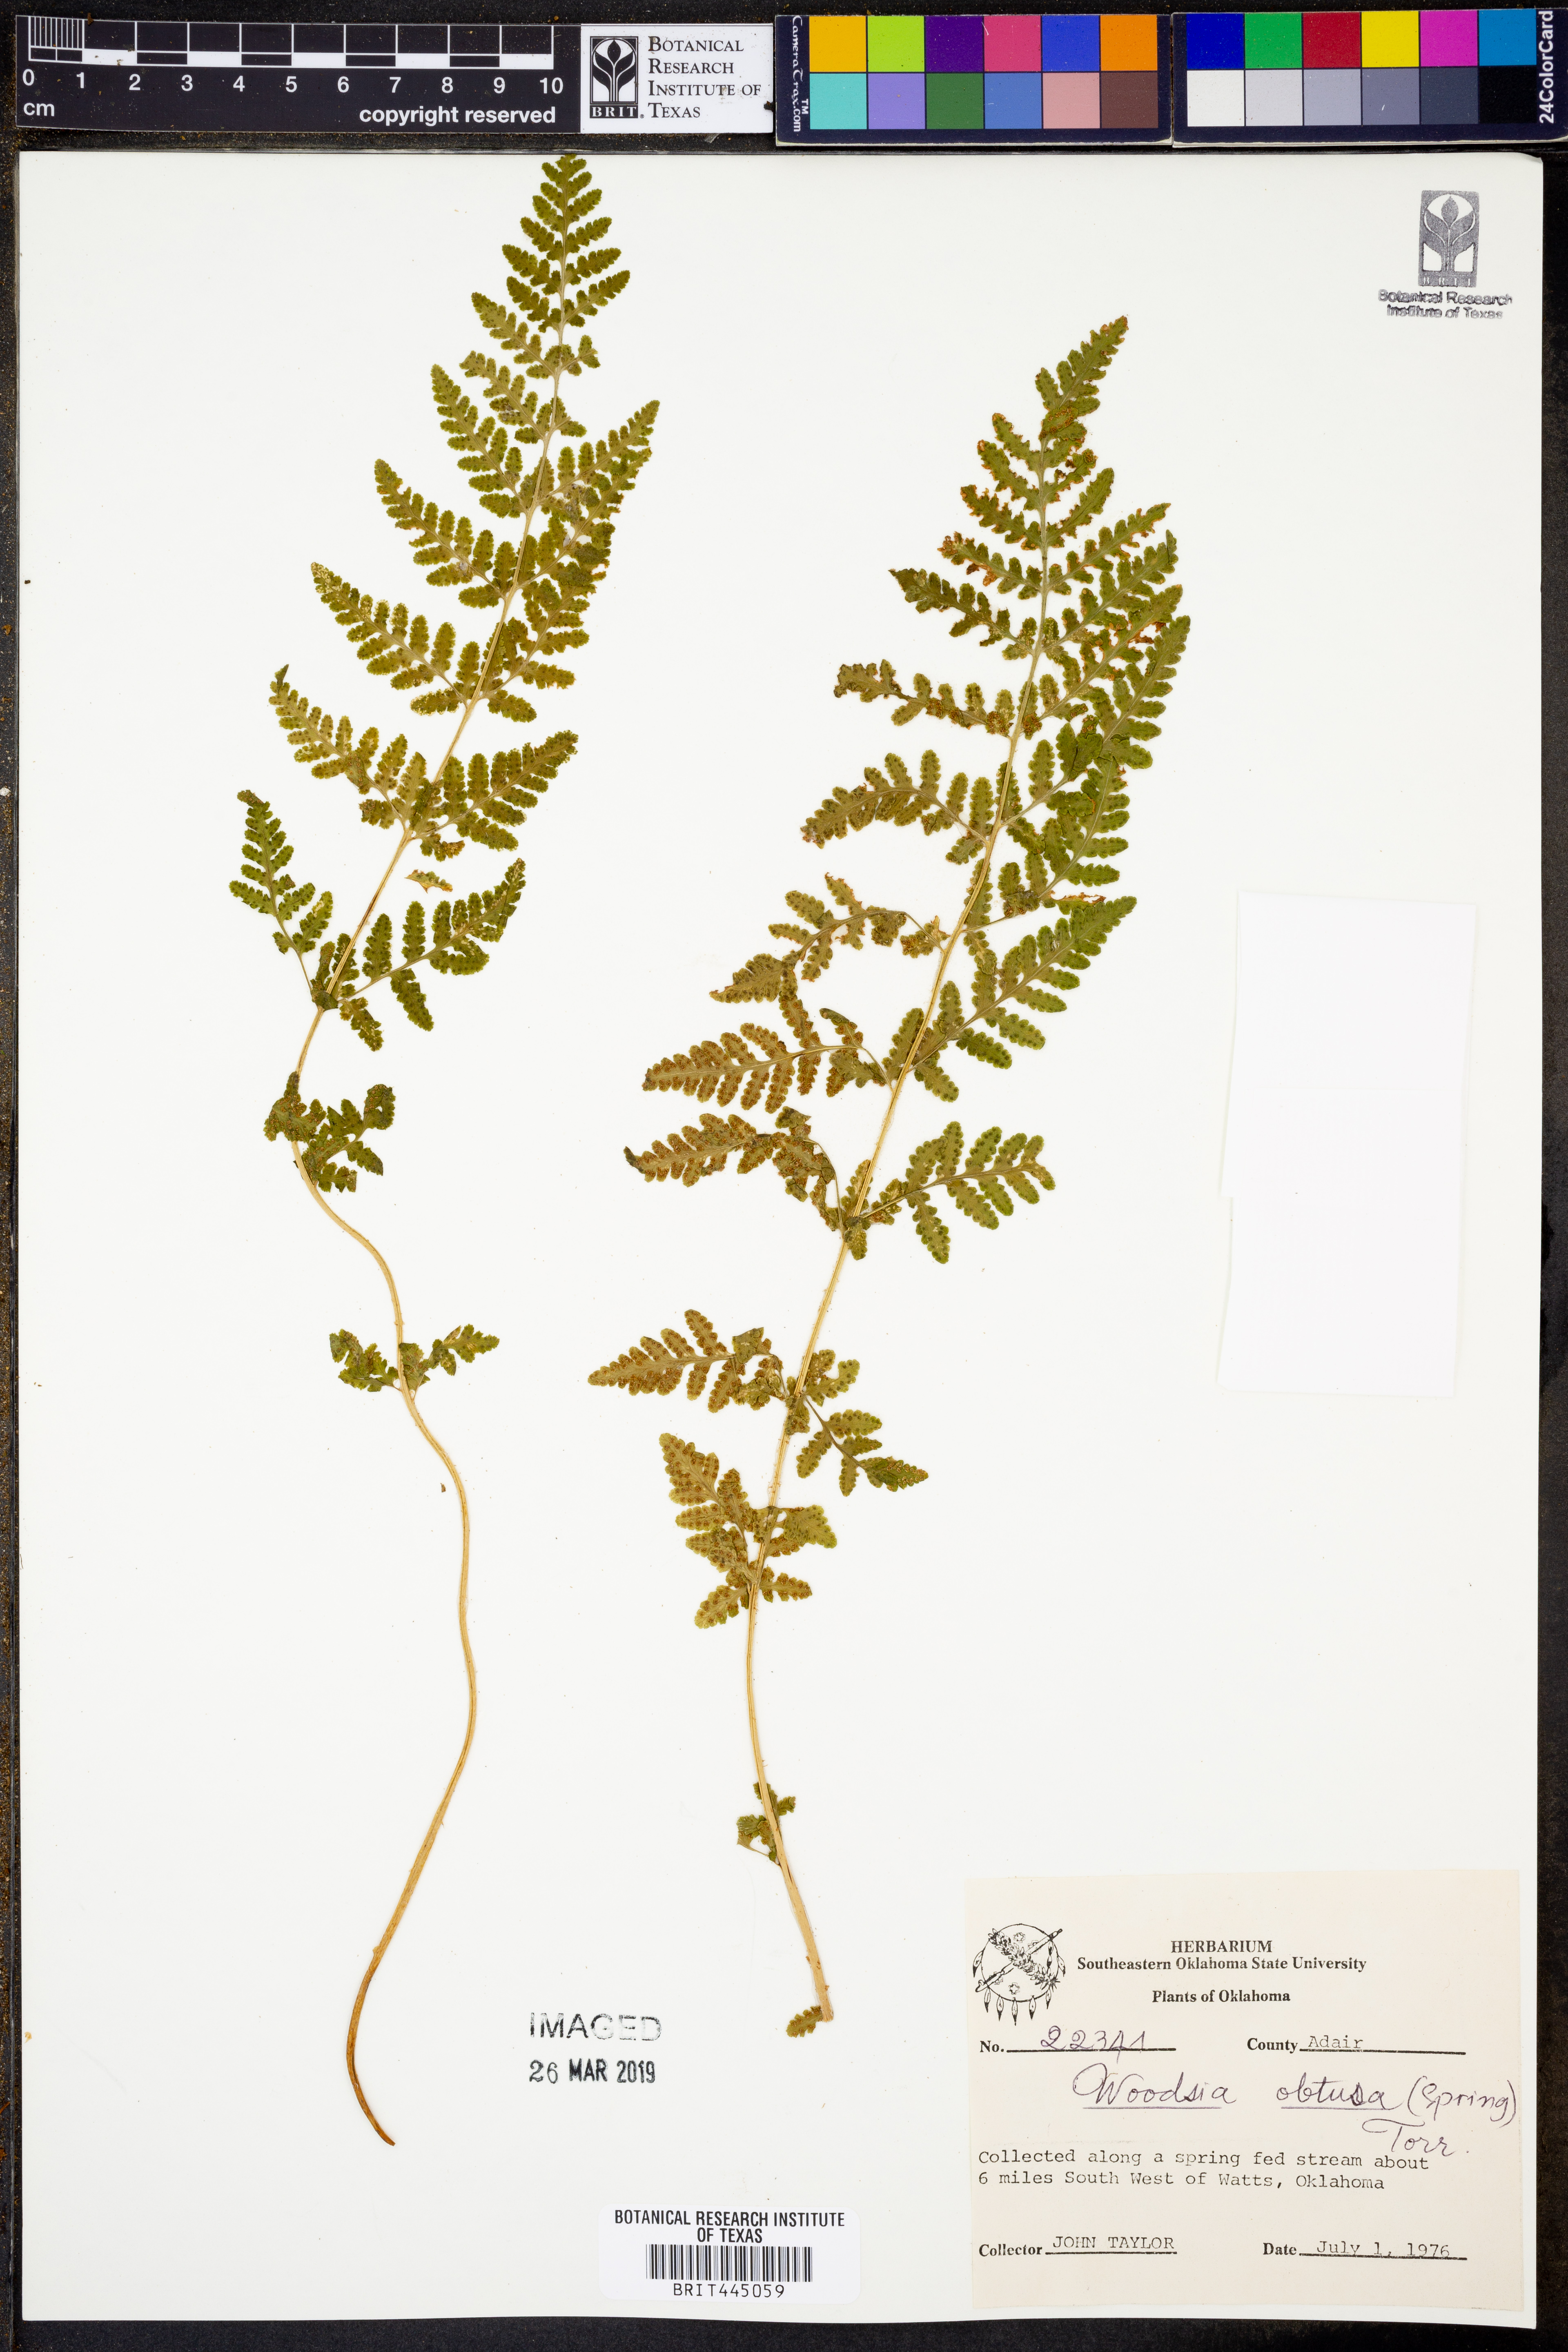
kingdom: Plantae
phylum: Tracheophyta
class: Polypodiopsida
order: Polypodiales
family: Woodsiaceae
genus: Physematium
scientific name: Physematium obtusum
